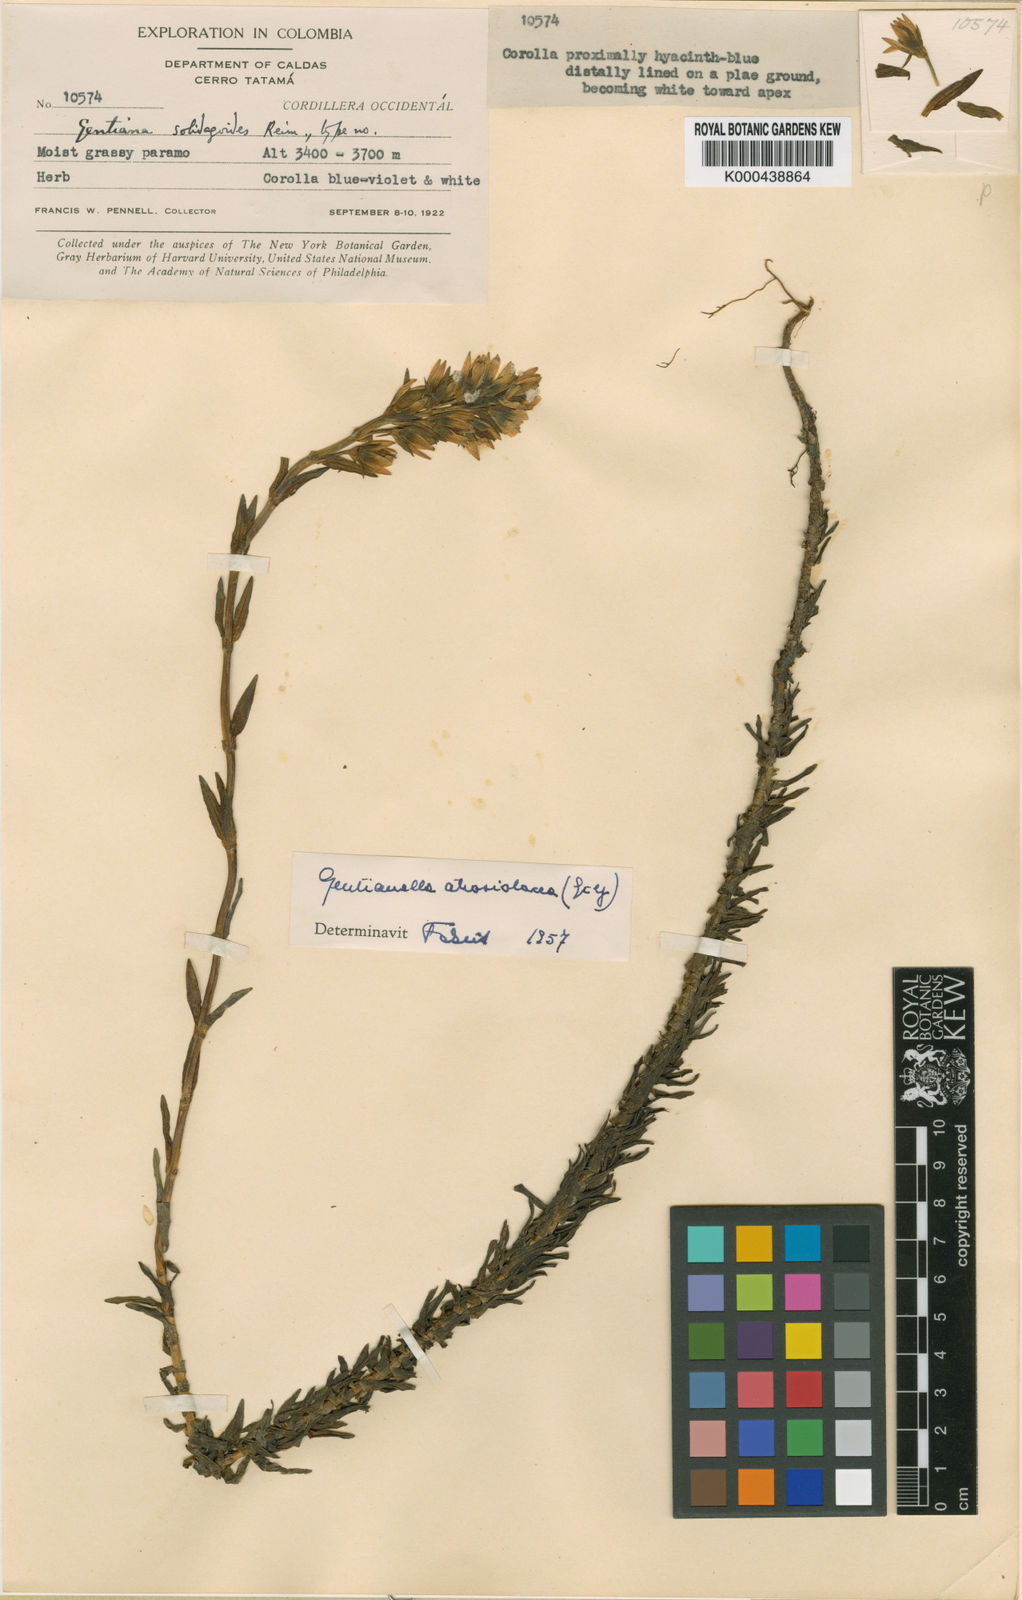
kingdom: Plantae
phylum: Tracheophyta
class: Magnoliopsida
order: Gentianales
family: Gentianaceae
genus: Gentianella
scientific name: Gentianella atroviolacea
